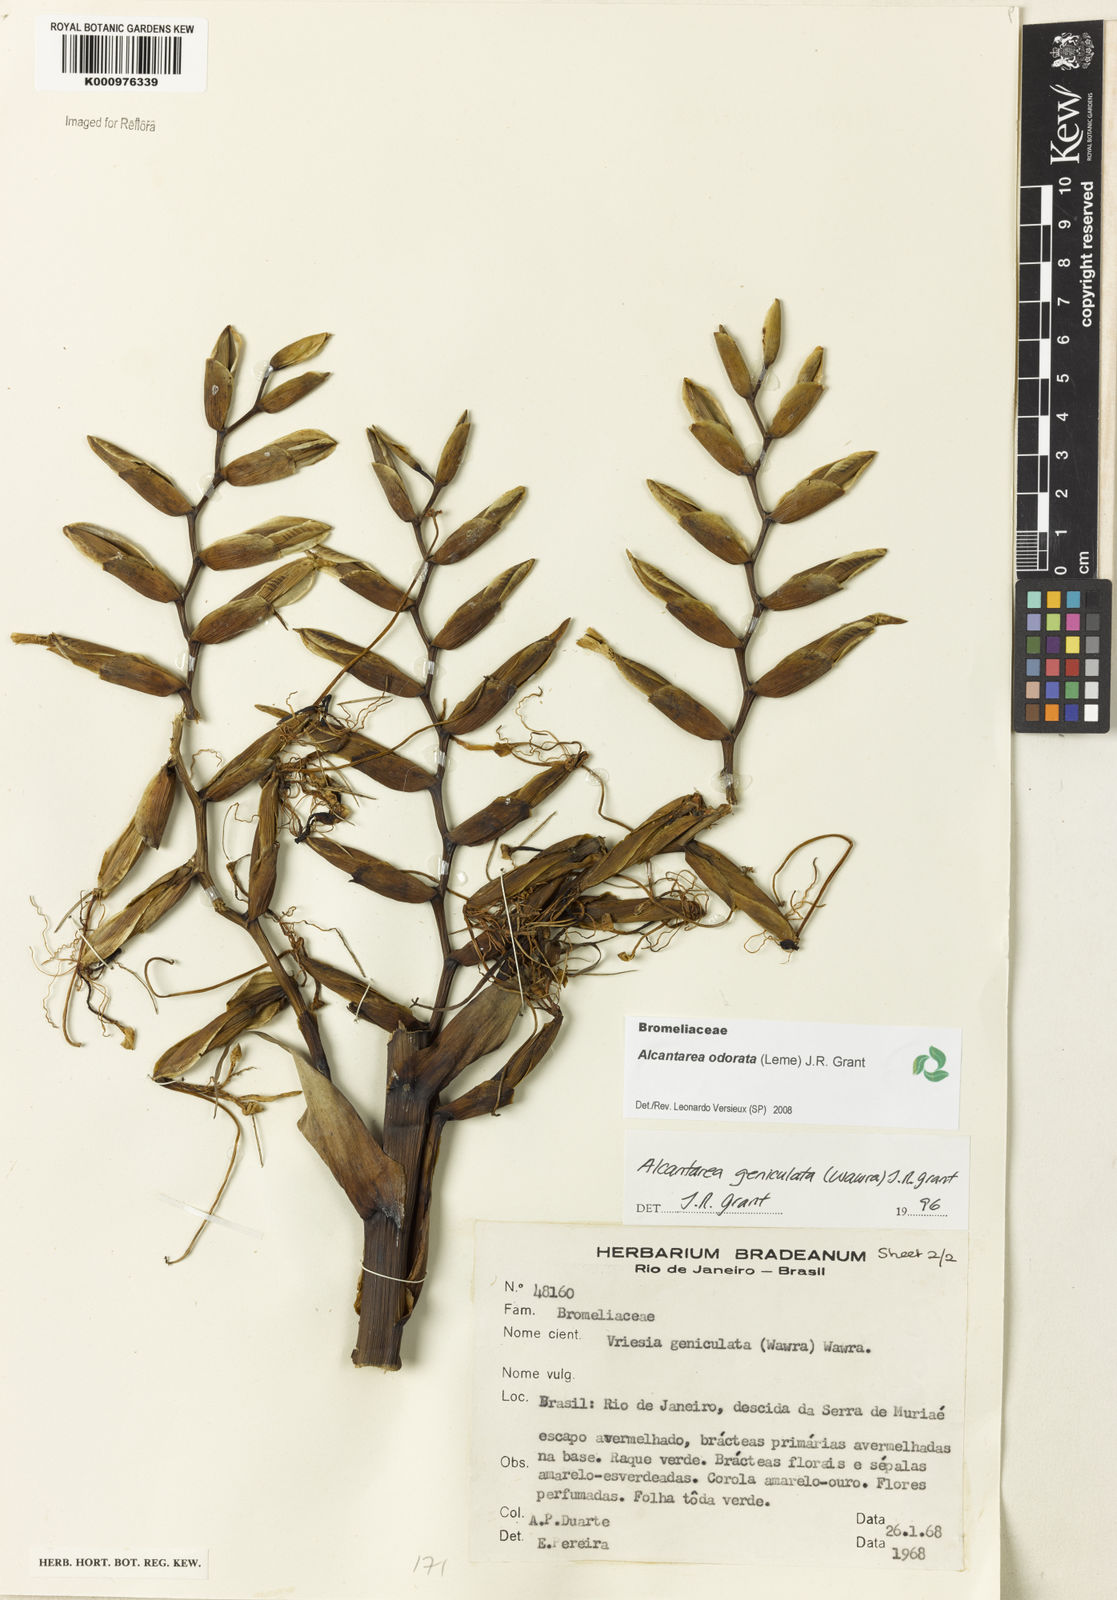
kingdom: Plantae
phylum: Tracheophyta
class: Liliopsida
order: Poales
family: Bromeliaceae
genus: Alcantarea
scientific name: Alcantarea geniculata
